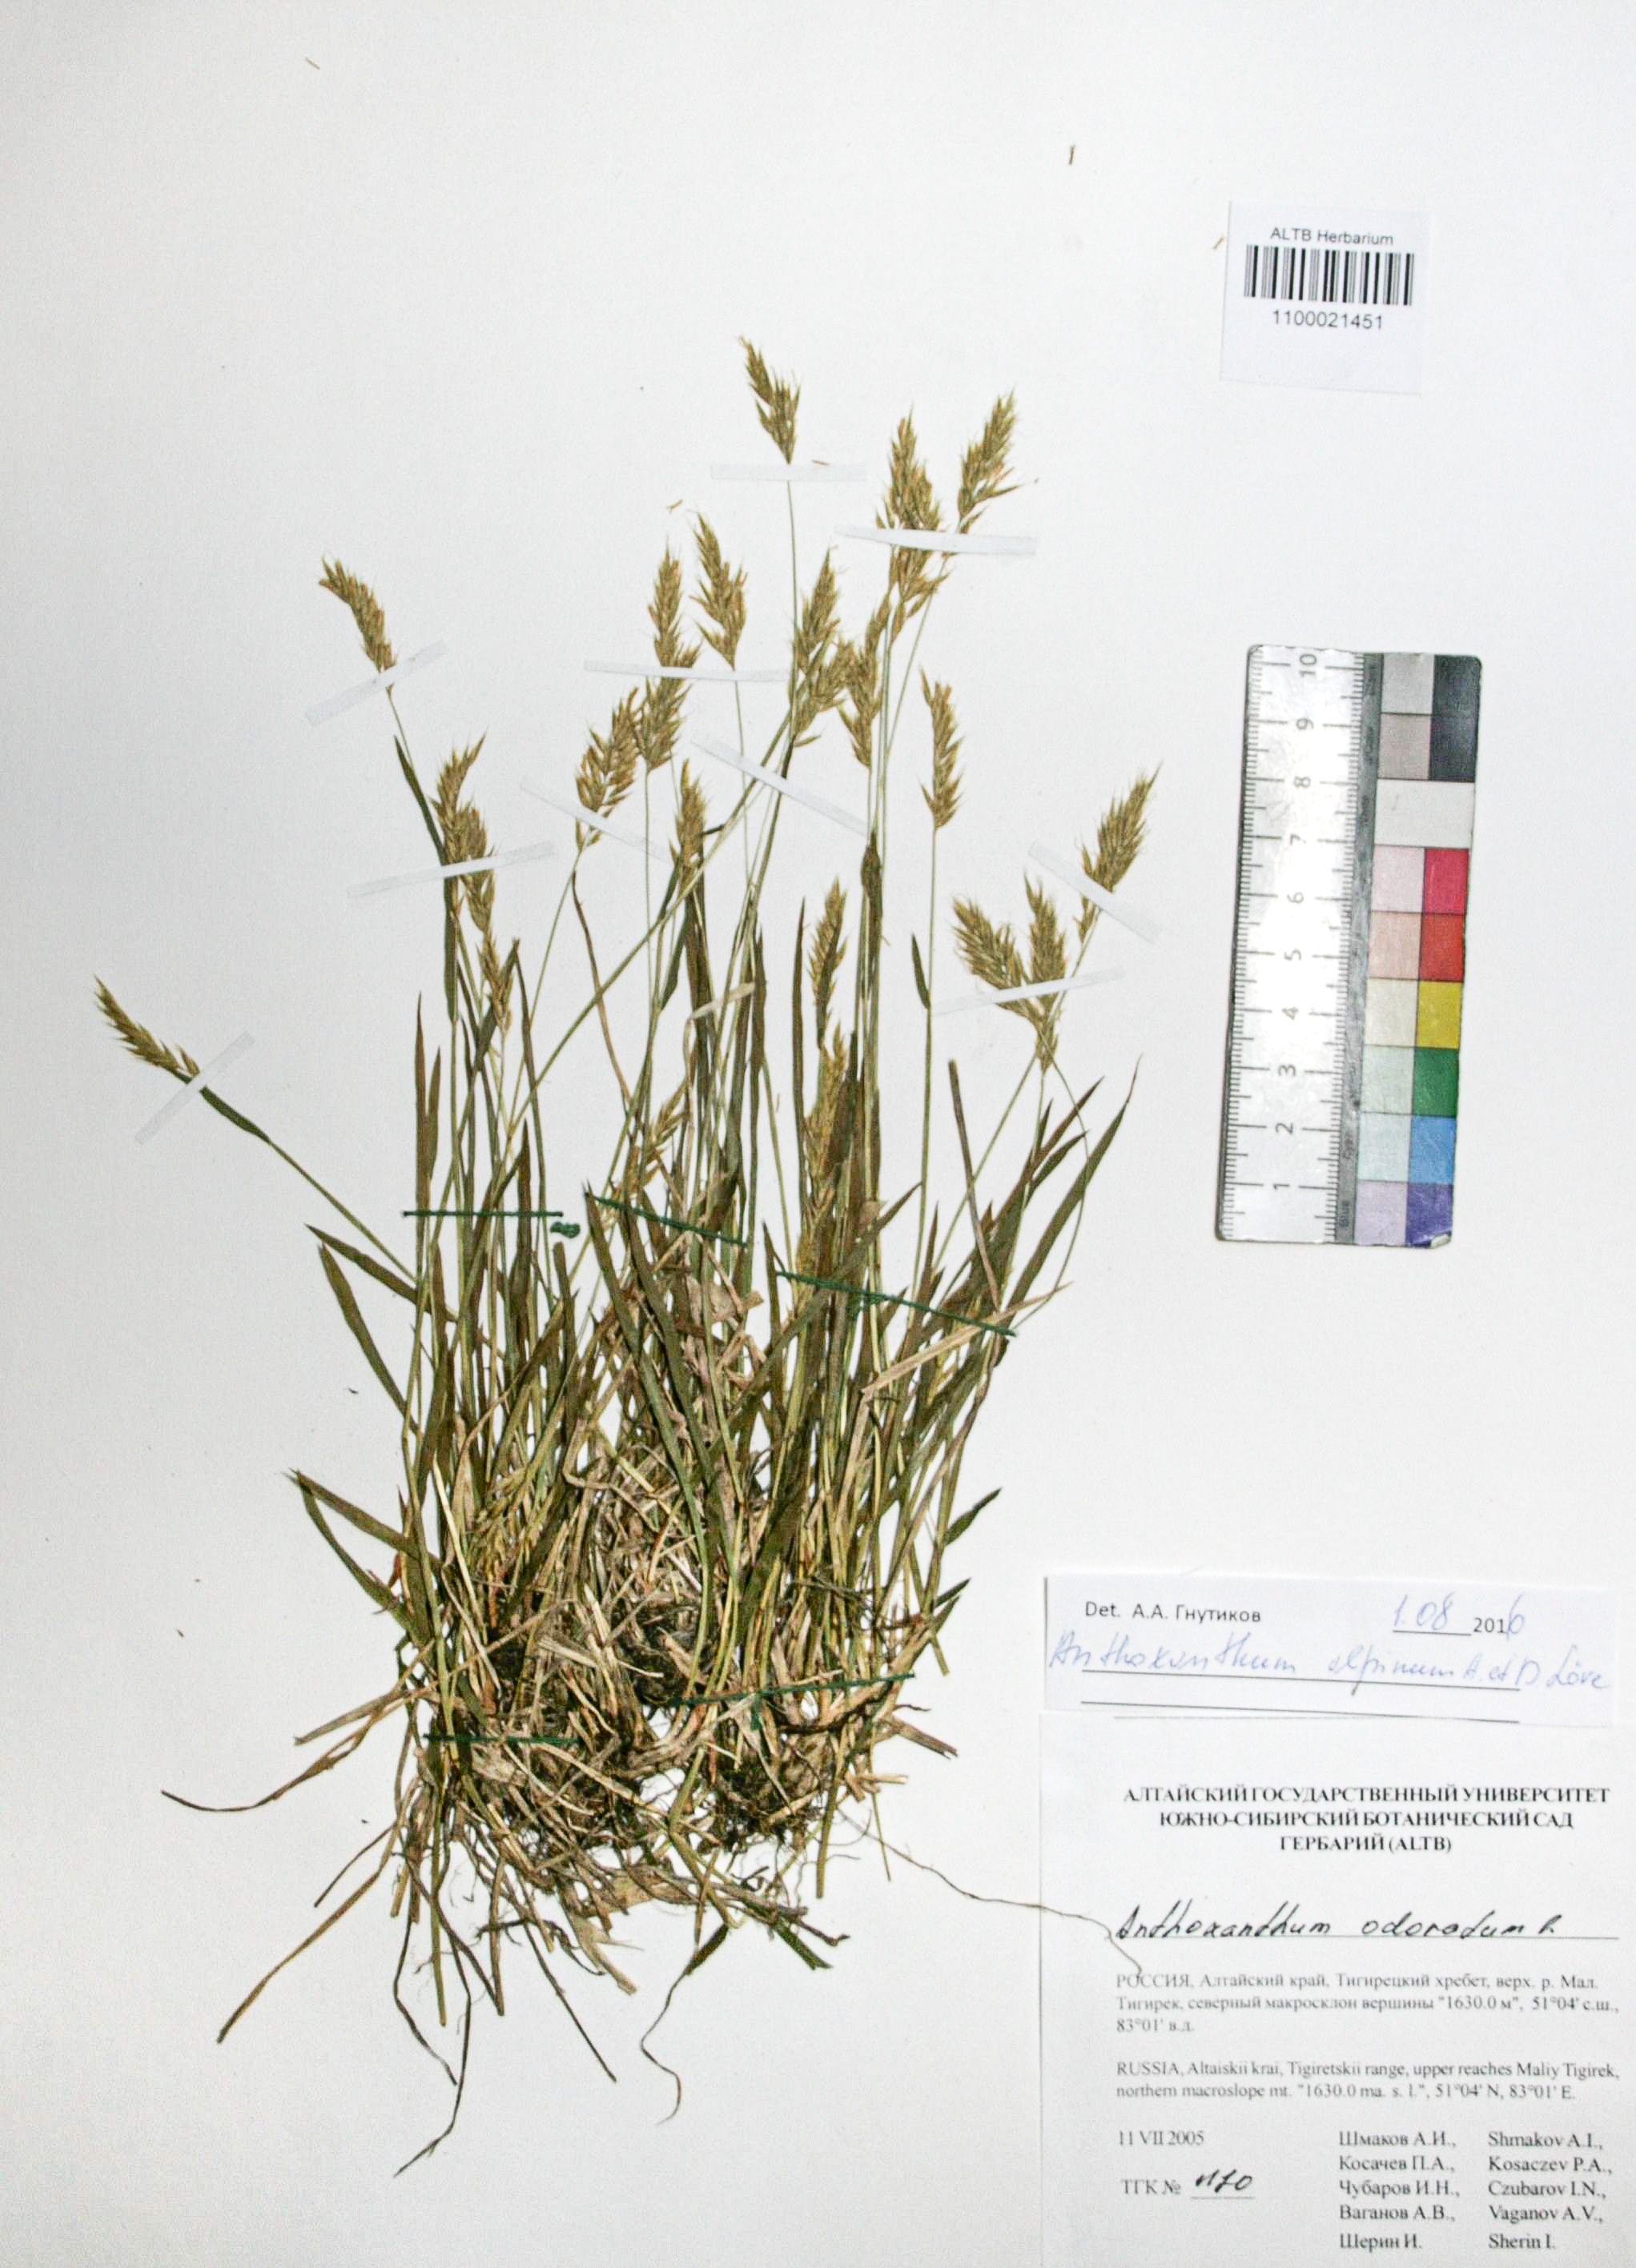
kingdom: Plantae
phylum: Tracheophyta
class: Liliopsida
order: Poales
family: Poaceae
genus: Anthoxanthum
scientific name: Anthoxanthum nipponicum
